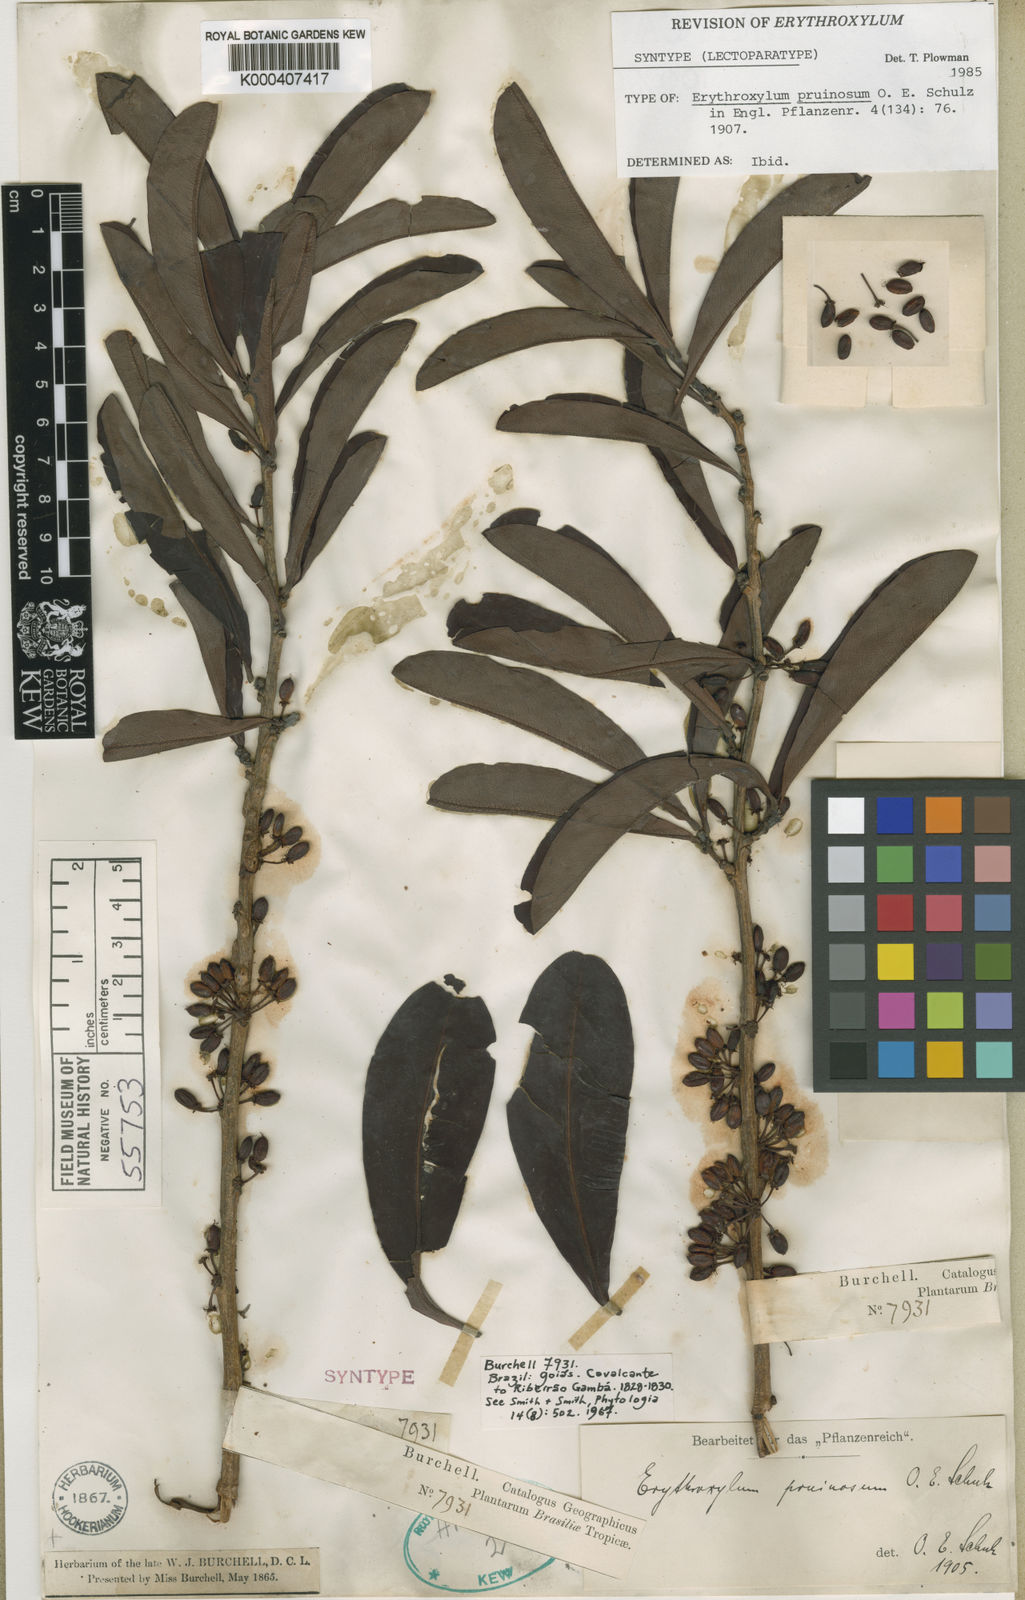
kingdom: Plantae
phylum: Tracheophyta
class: Magnoliopsida
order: Malpighiales
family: Erythroxylaceae
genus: Erythroxylum
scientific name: Erythroxylum pruinosum
